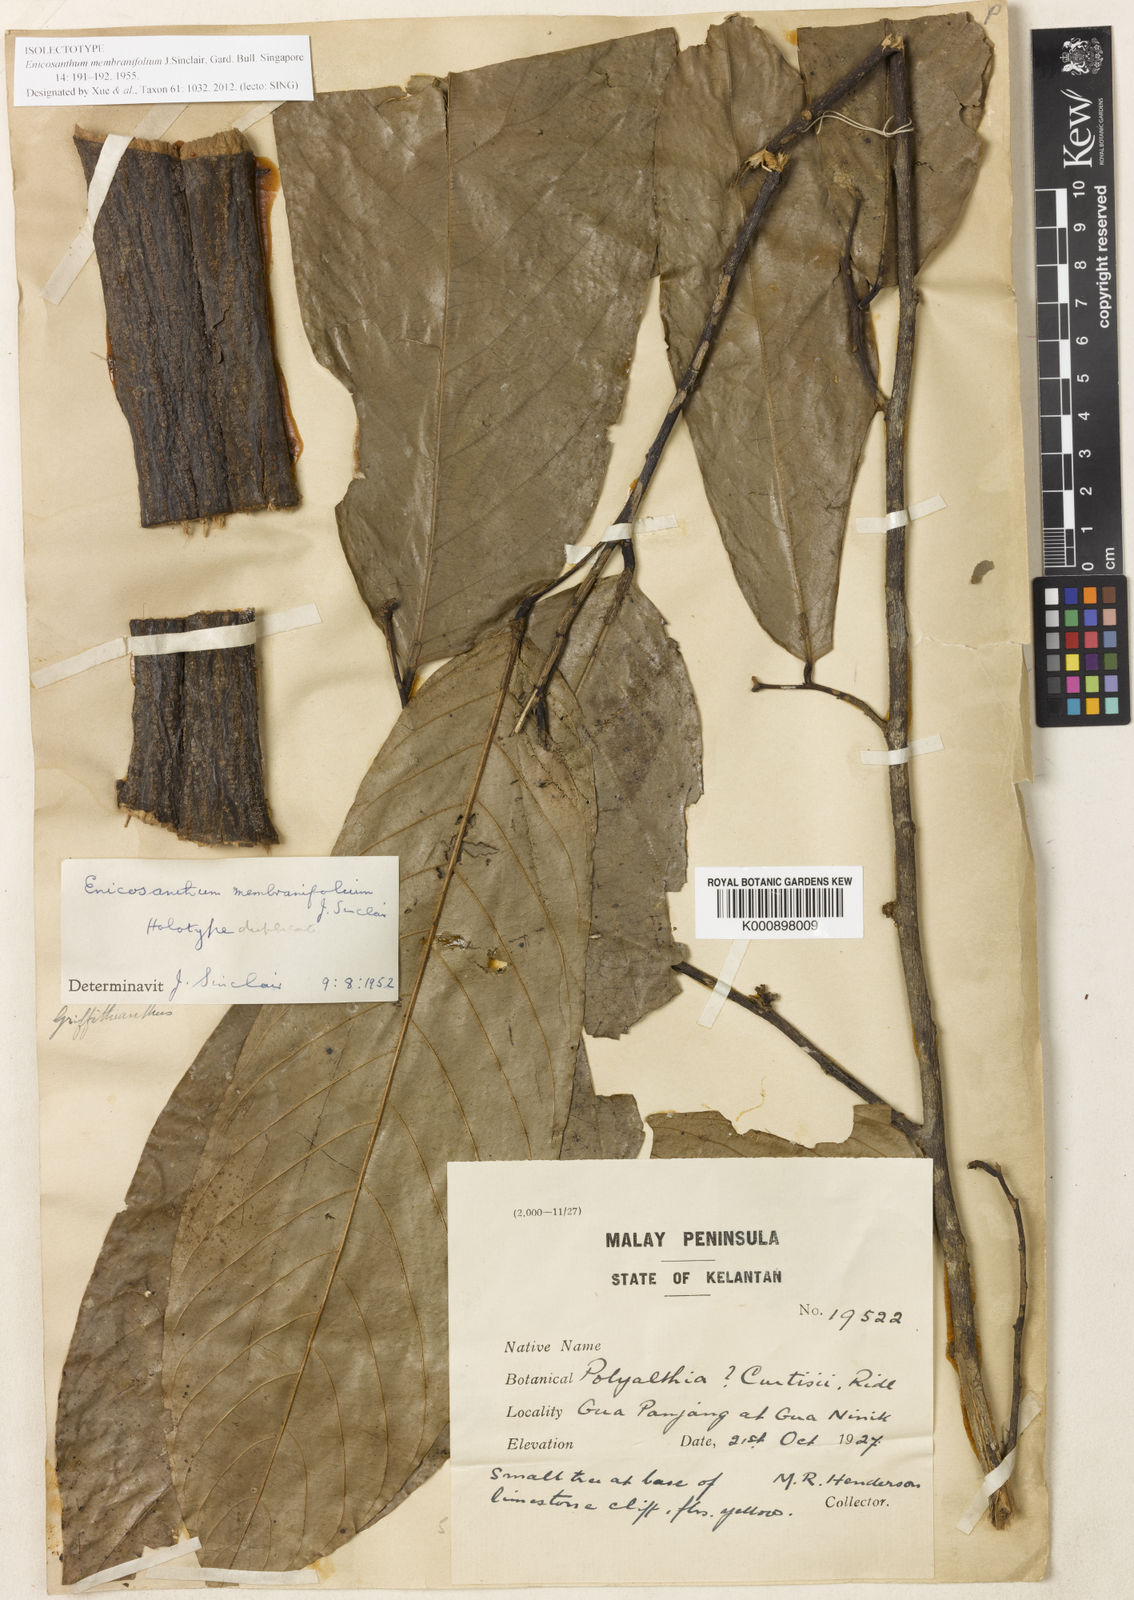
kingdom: Plantae
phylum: Tracheophyta
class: Magnoliopsida
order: Magnoliales
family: Annonaceae
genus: Enicosanthum
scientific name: Enicosanthum membranifolium
